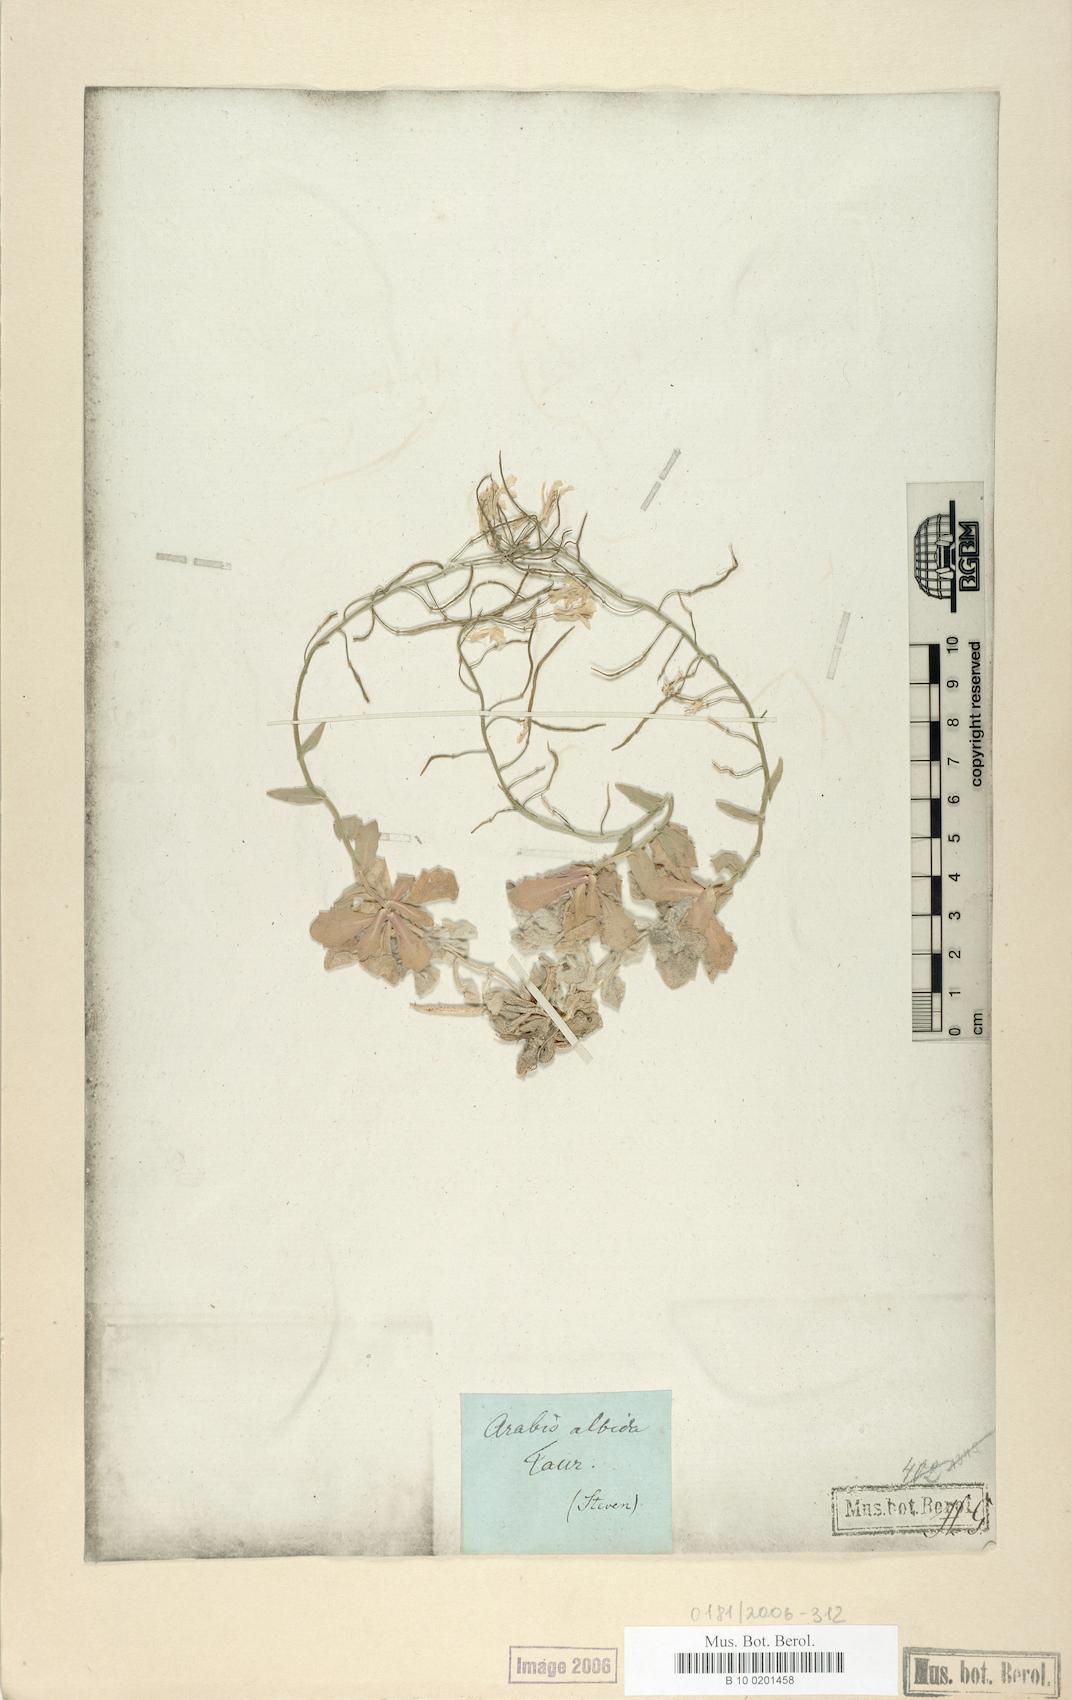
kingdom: Plantae
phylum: Tracheophyta
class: Magnoliopsida
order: Brassicales
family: Brassicaceae
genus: Arabis
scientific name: Arabis alpina
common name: Alpine rock-cress
